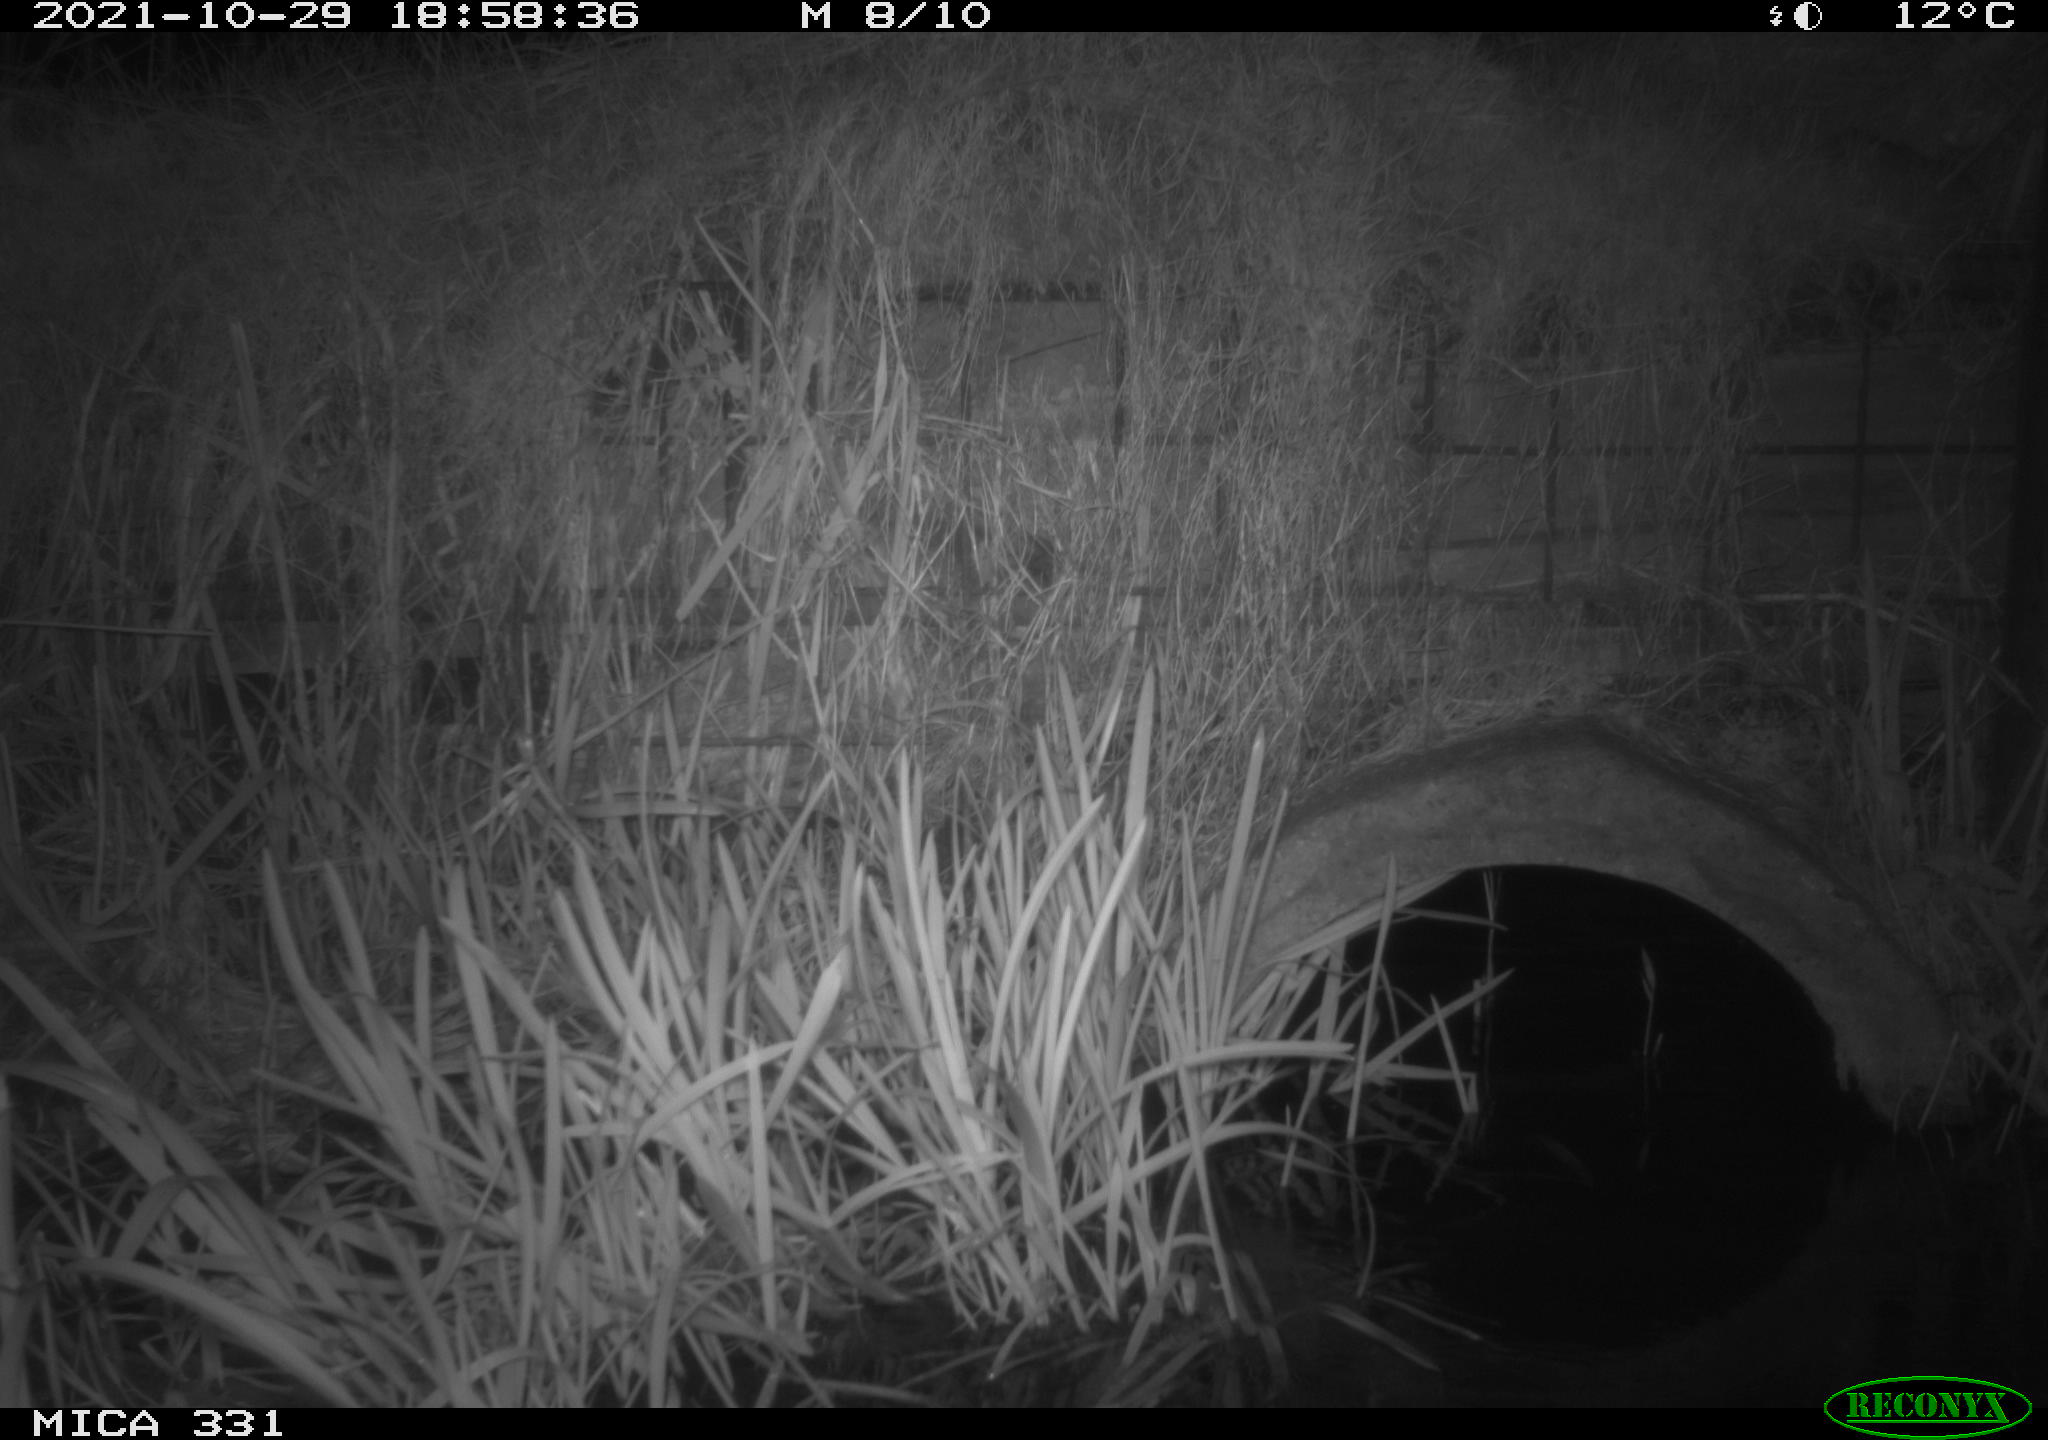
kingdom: Animalia
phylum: Chordata
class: Mammalia
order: Rodentia
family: Muridae
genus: Rattus
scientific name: Rattus norvegicus
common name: Brown rat
